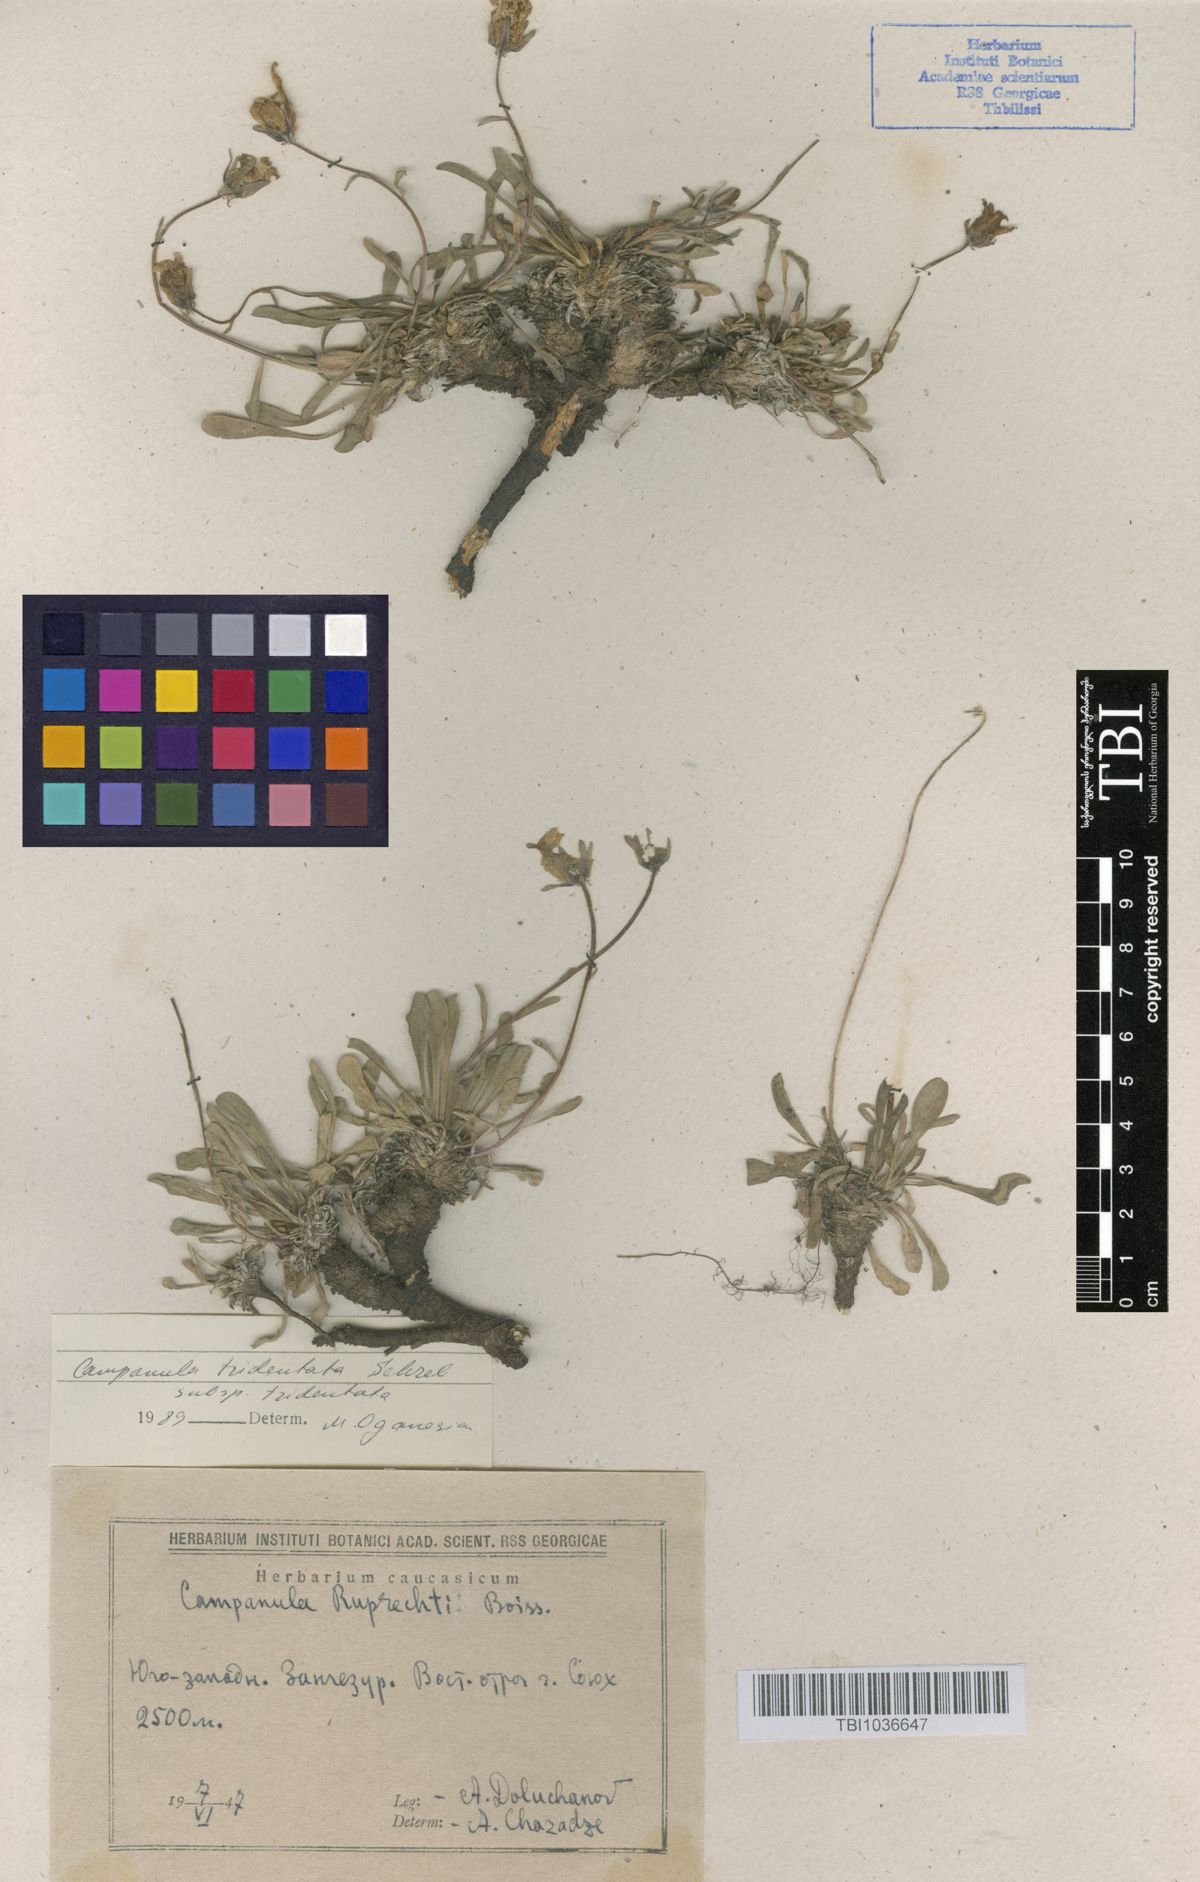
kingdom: Plantae
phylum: Tracheophyta
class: Magnoliopsida
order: Asterales
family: Campanulaceae
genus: Campanula
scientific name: Campanula tridentata
